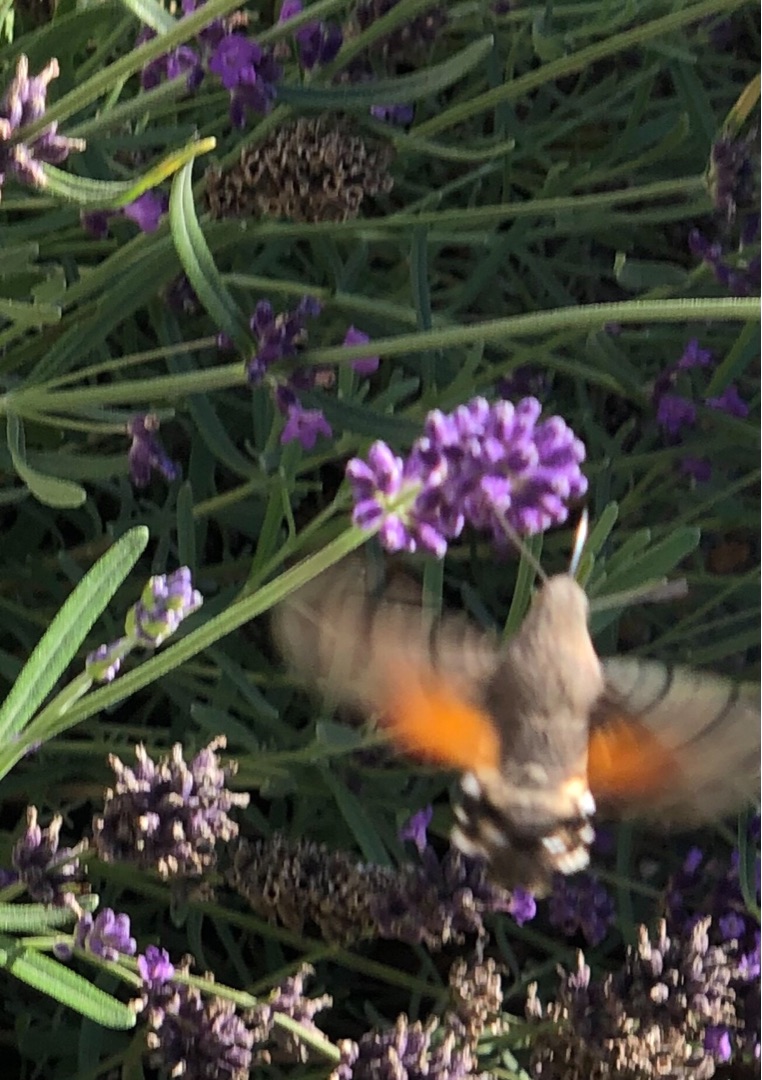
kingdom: Animalia
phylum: Arthropoda
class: Insecta
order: Lepidoptera
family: Sphingidae
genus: Macroglossum
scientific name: Macroglossum stellatarum
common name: Duehale
